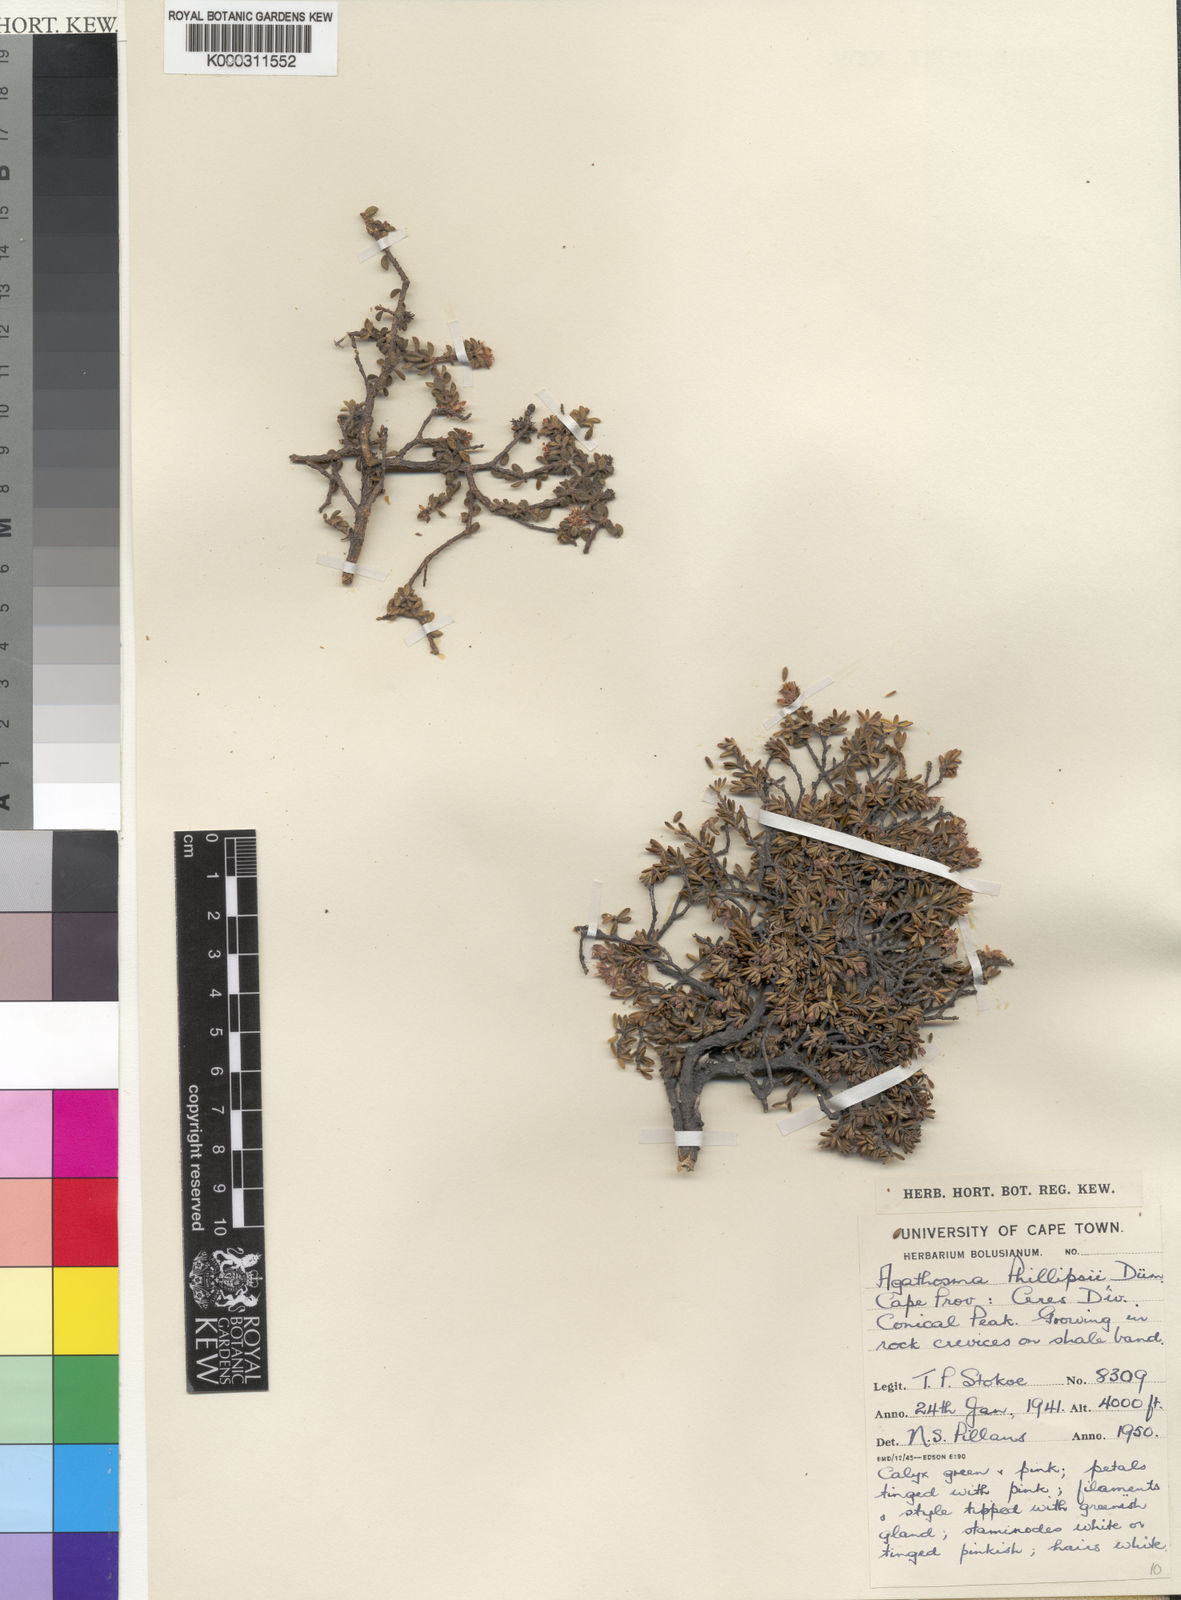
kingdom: Plantae
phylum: Tracheophyta
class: Magnoliopsida
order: Sapindales
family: Rutaceae
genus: Agathosma
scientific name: Agathosma phillipsii
